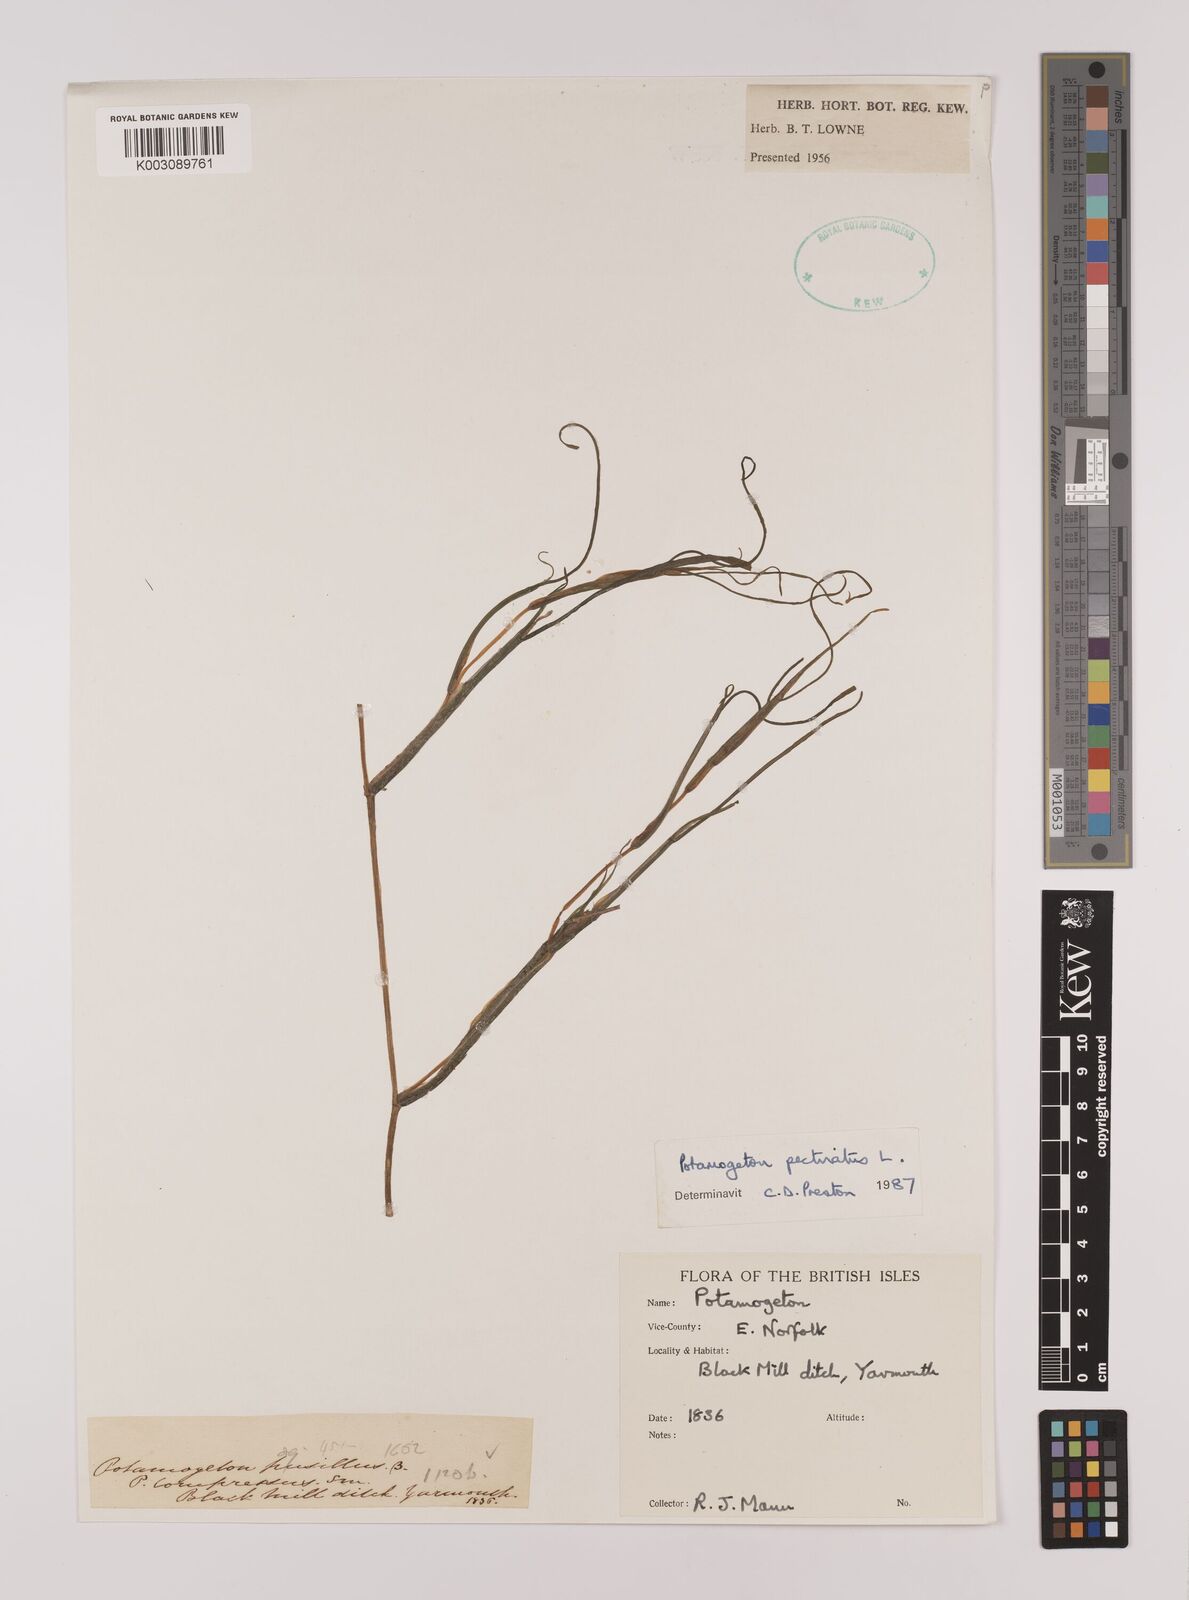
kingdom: Plantae
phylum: Tracheophyta
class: Liliopsida
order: Alismatales
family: Potamogetonaceae
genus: Stuckenia
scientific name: Stuckenia pectinata
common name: Sago pondweed
